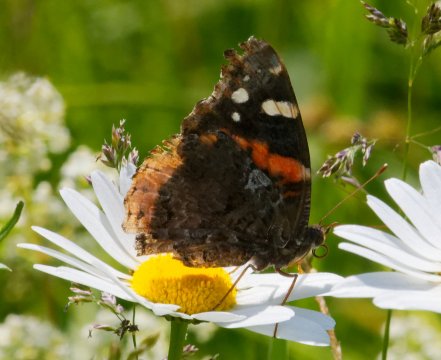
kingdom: Animalia
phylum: Arthropoda
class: Insecta
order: Lepidoptera
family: Nymphalidae
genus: Vanessa
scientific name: Vanessa atalanta
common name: Red Admiral
